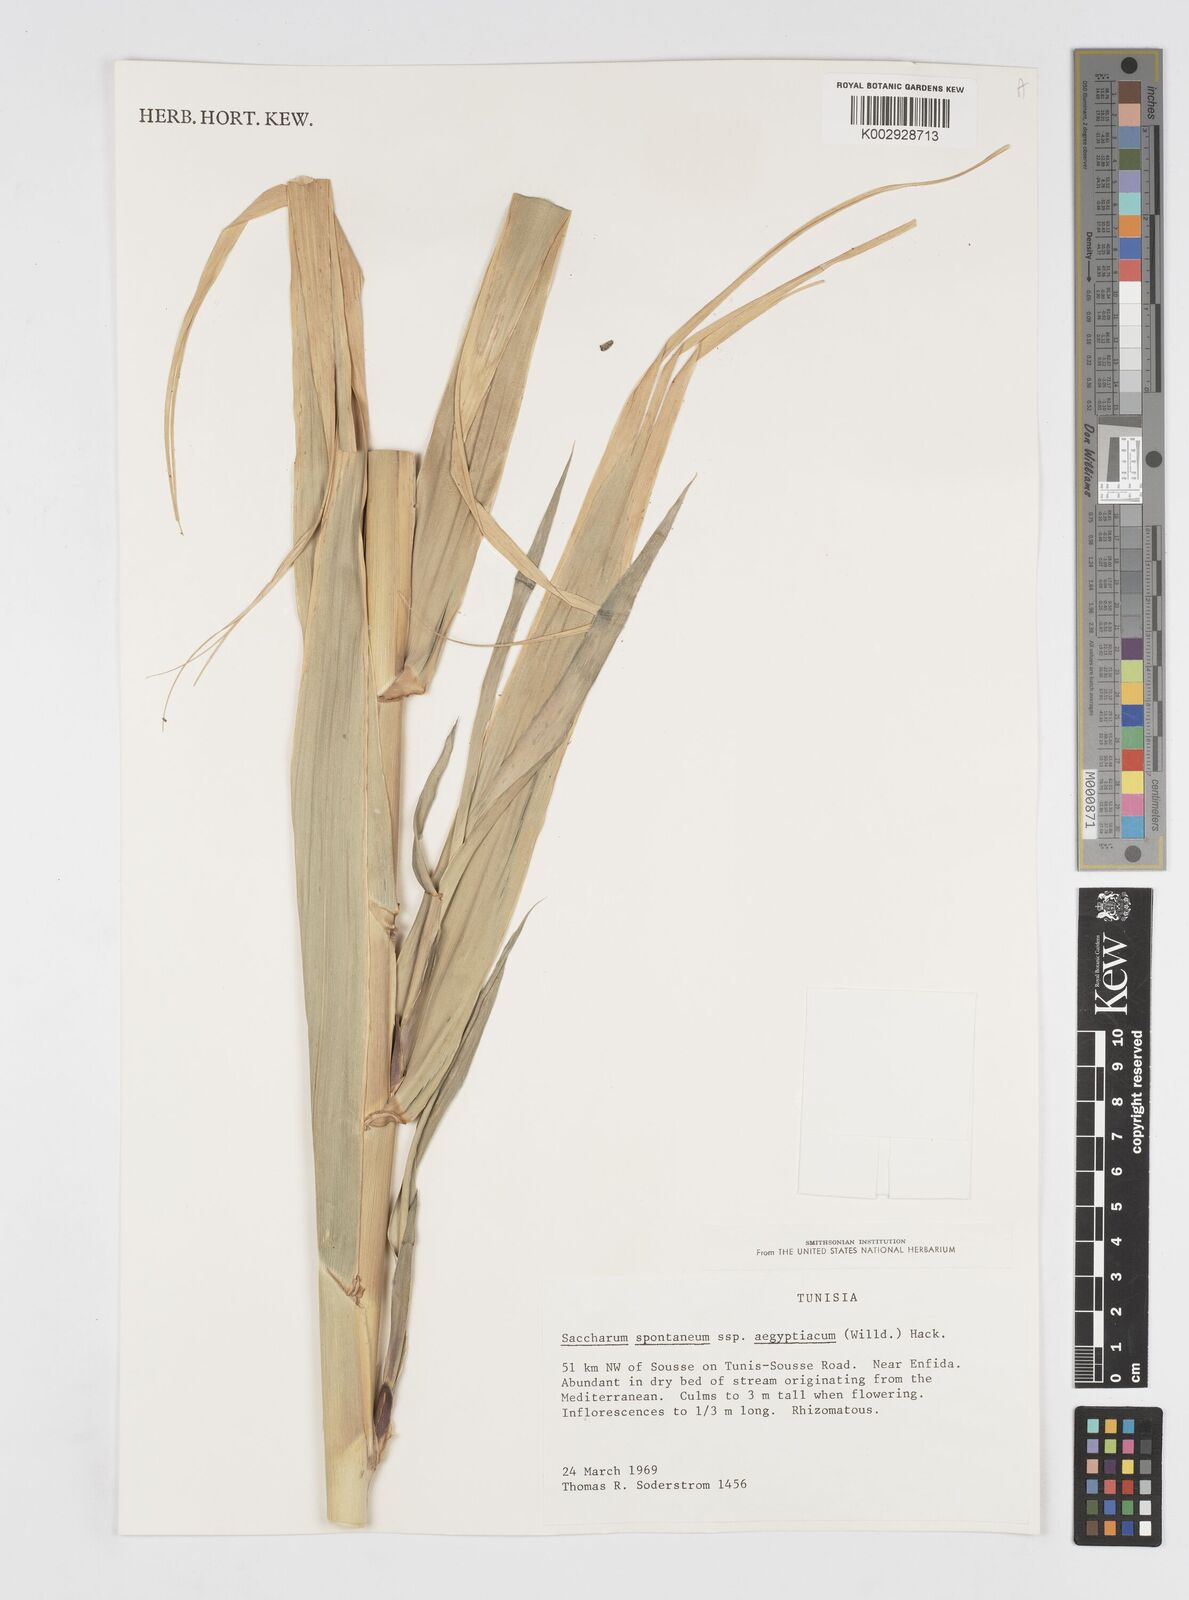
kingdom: Plantae
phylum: Tracheophyta
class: Liliopsida
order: Poales
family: Poaceae
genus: Saccharum
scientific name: Saccharum spontaneum
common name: Wild sugarcane
